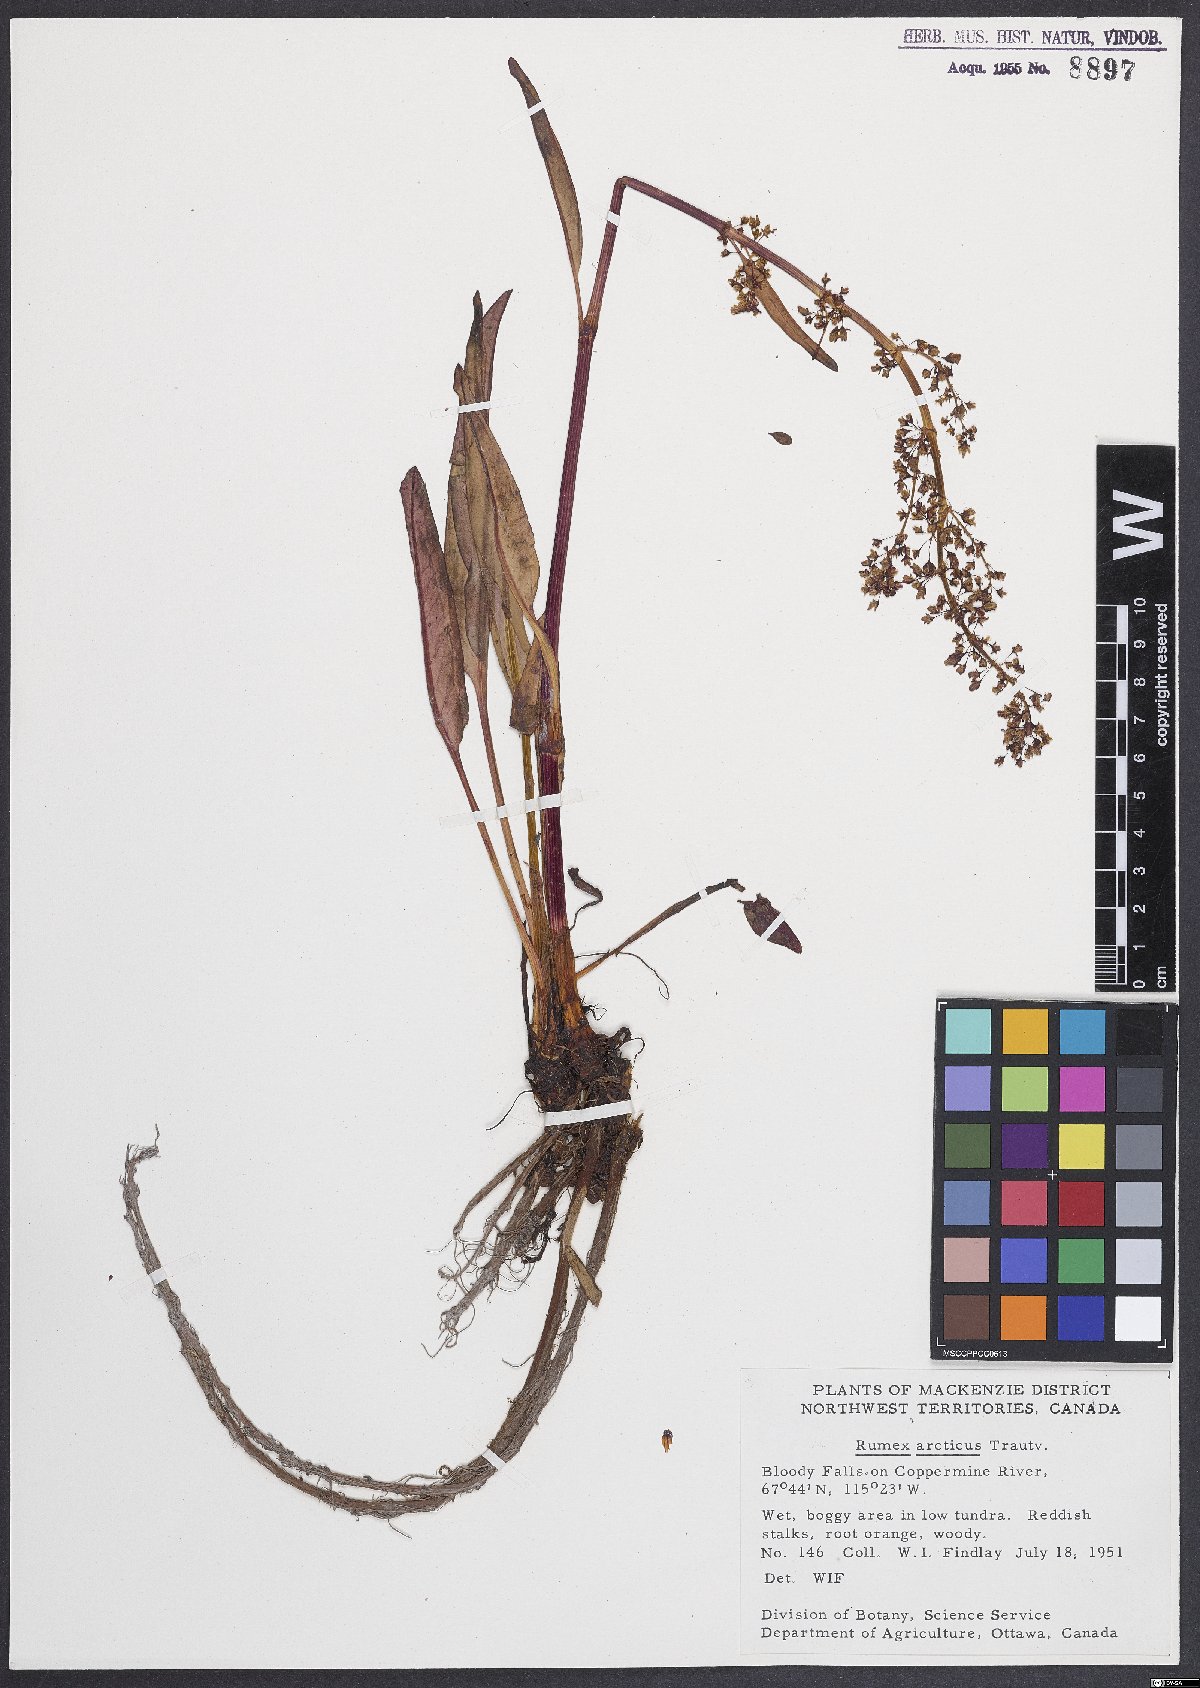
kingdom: Plantae
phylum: Tracheophyta
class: Magnoliopsida
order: Caryophyllales
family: Polygonaceae
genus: Rumex
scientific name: Rumex arcticus
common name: Arctic dock
